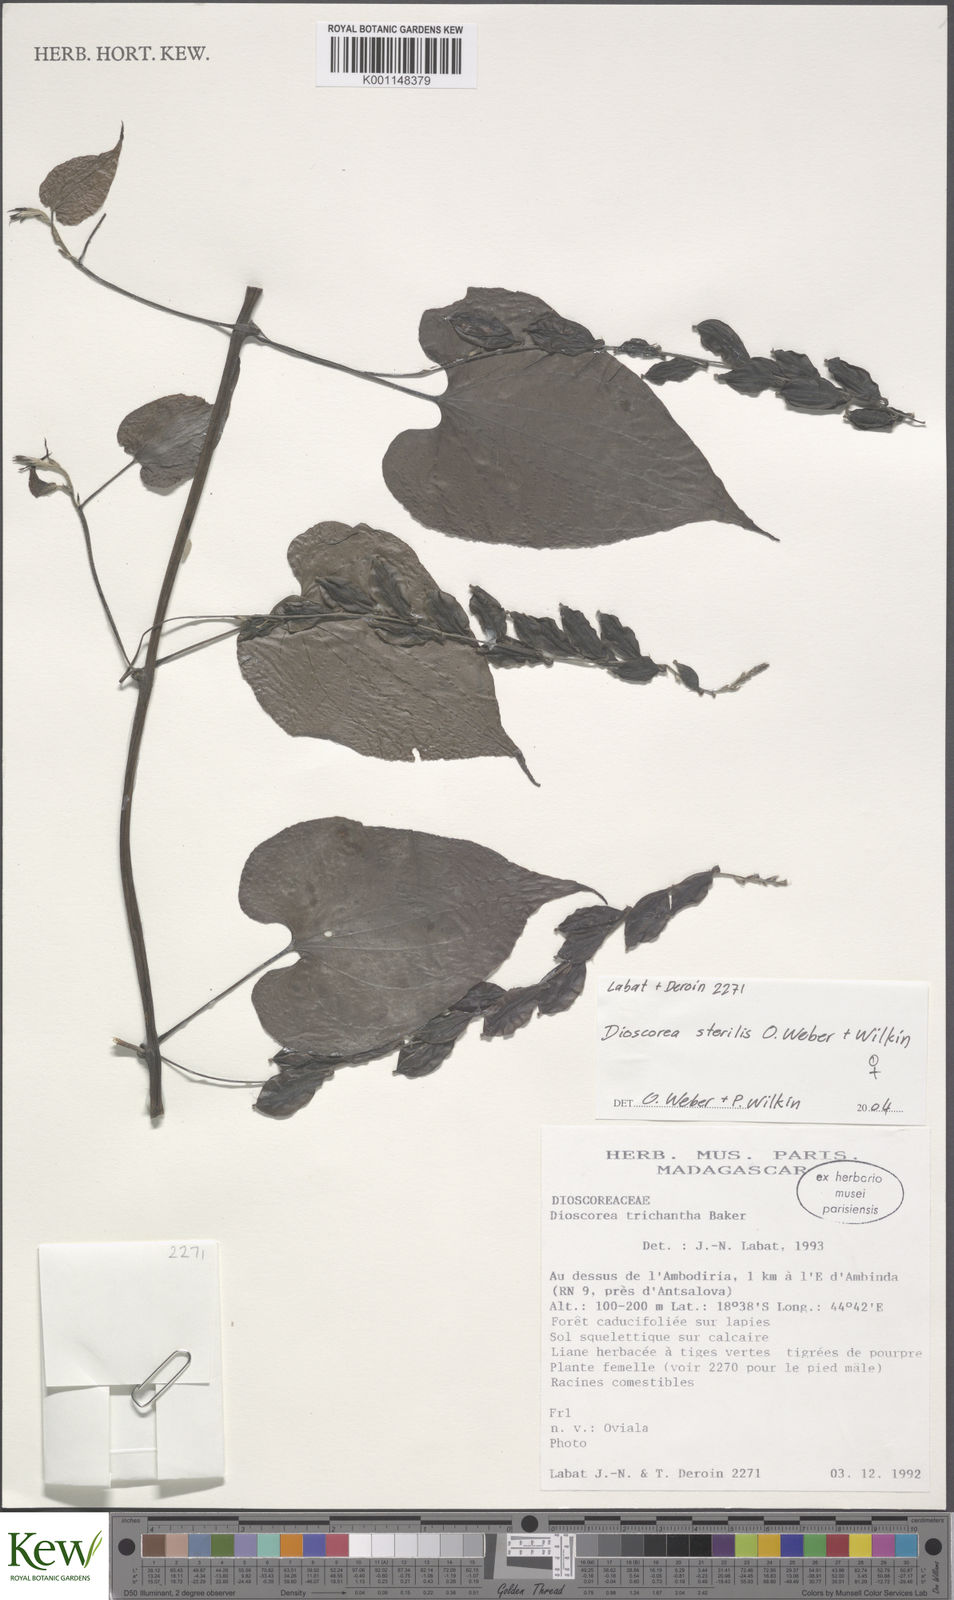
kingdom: Plantae
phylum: Tracheophyta
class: Liliopsida
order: Dioscoreales
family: Dioscoreaceae
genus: Dioscorea
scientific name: Dioscorea sterilis
